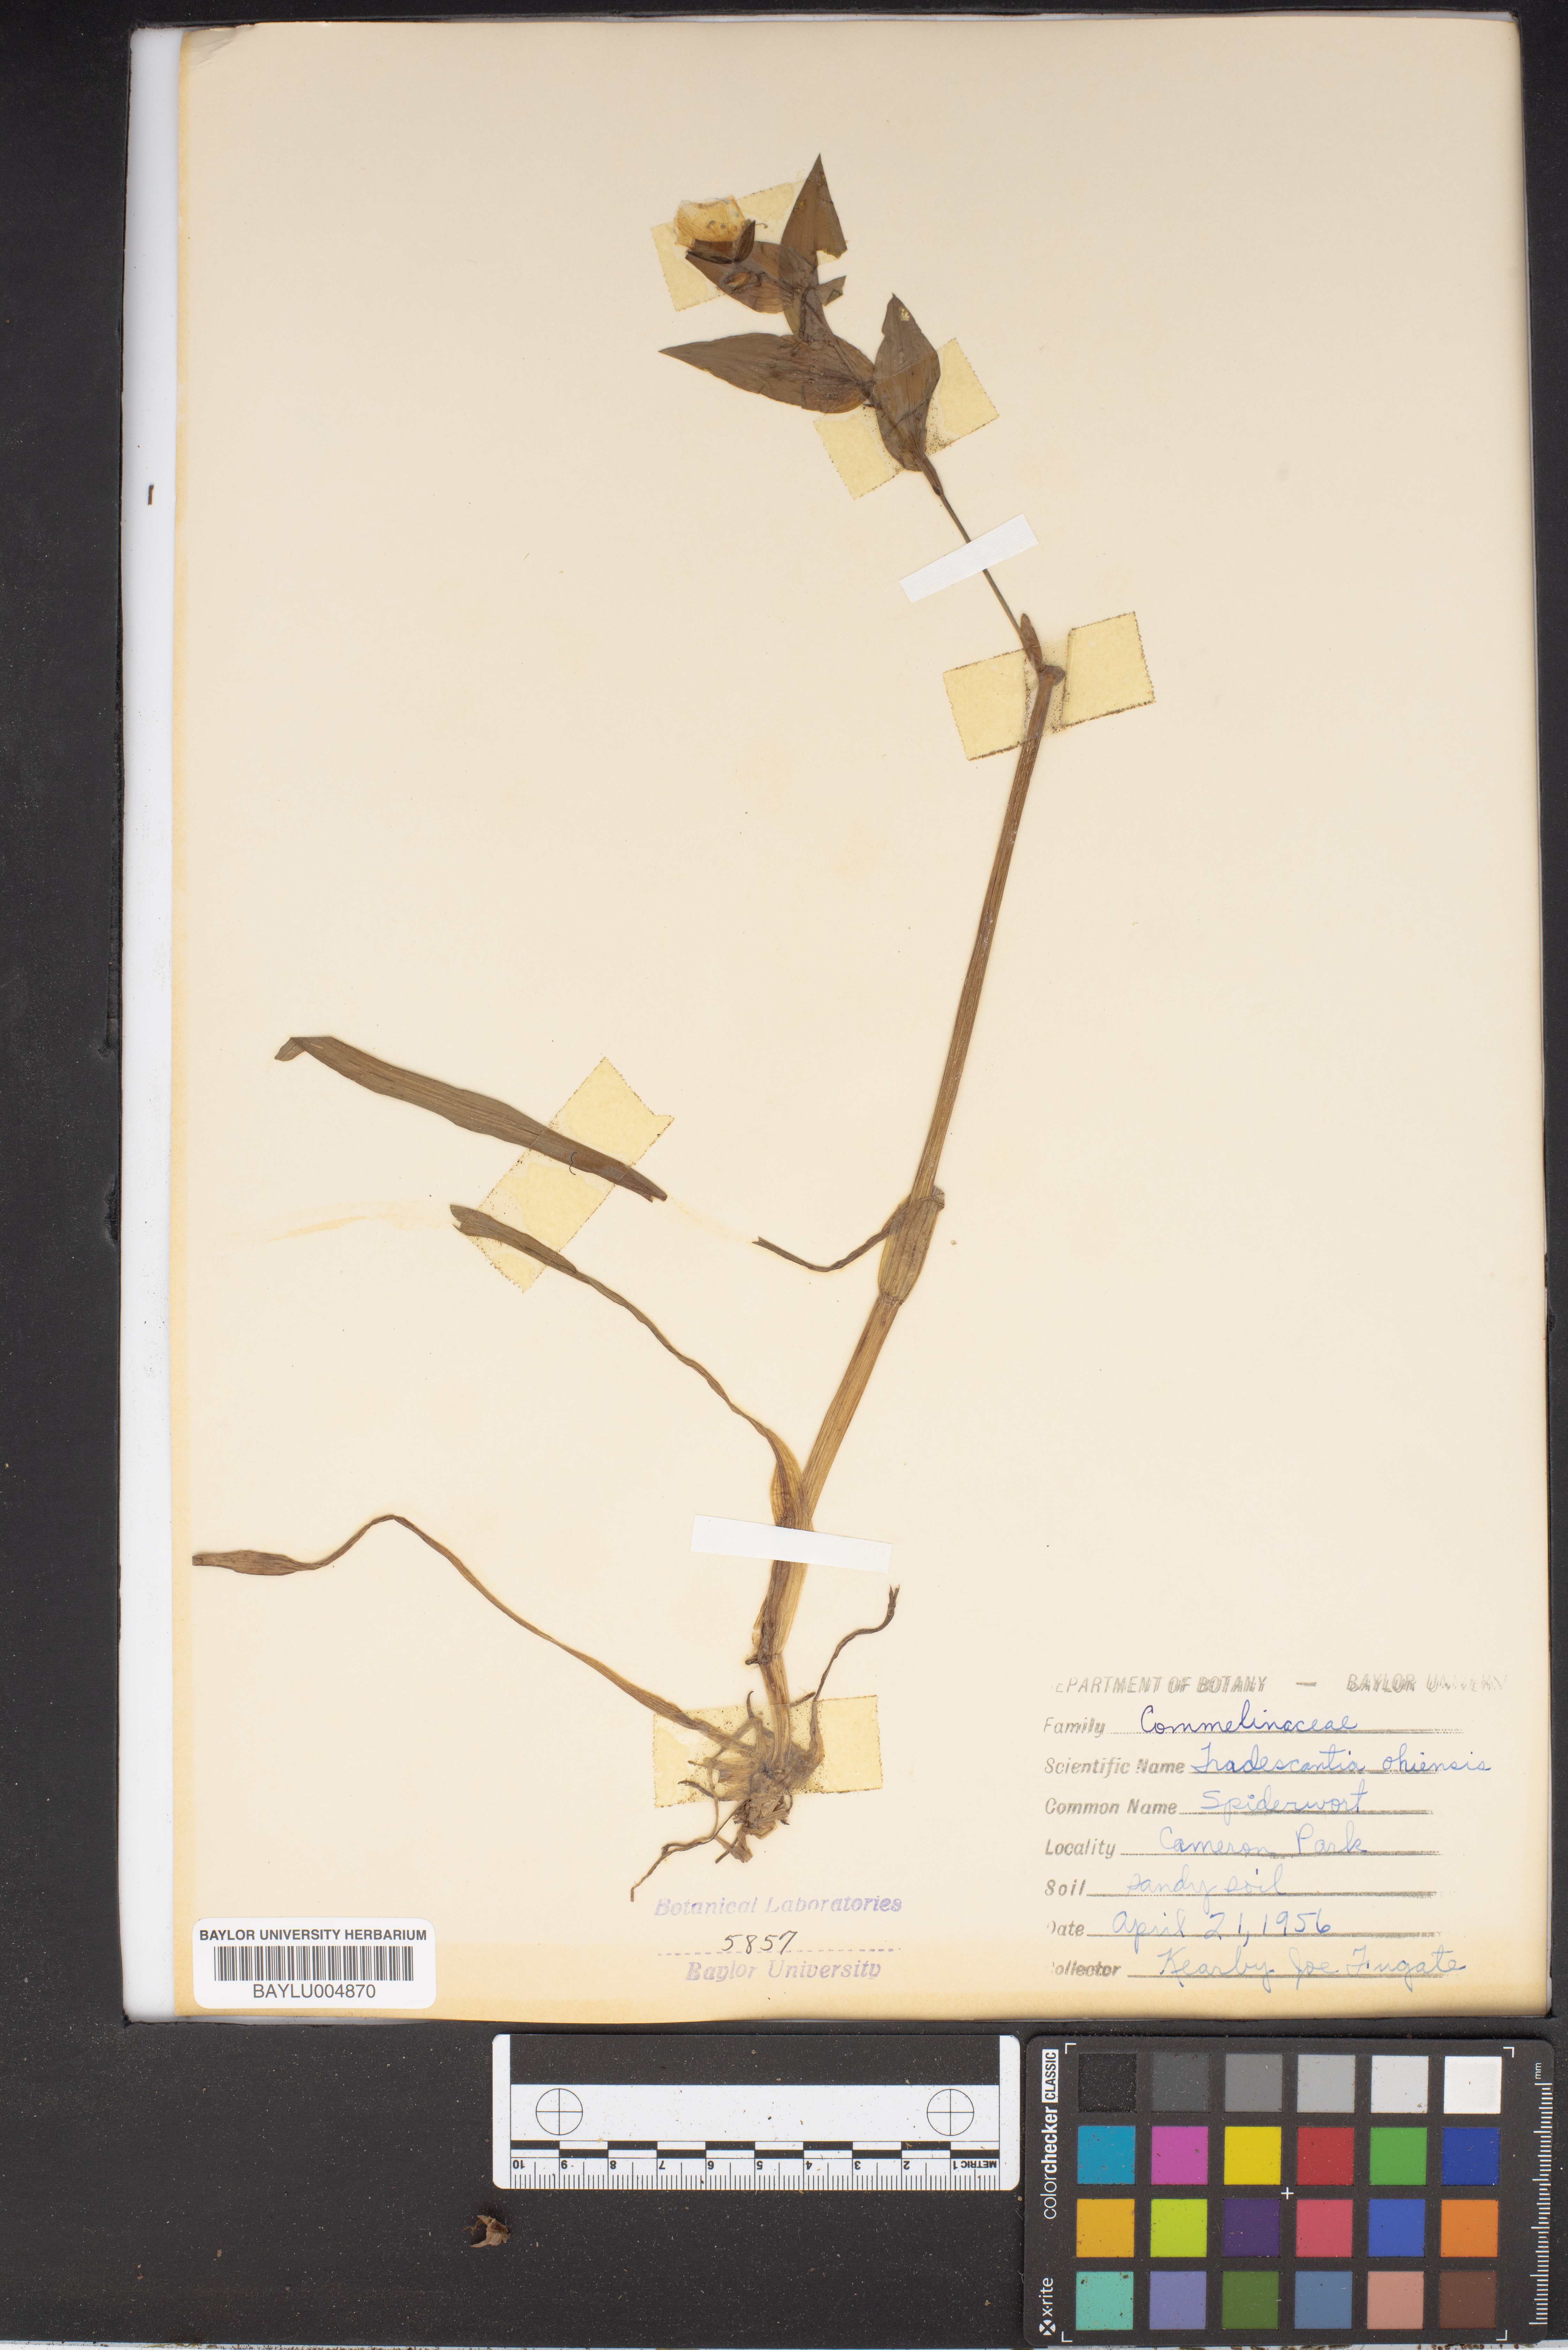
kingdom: Plantae
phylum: Tracheophyta
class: Liliopsida
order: Commelinales
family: Commelinaceae
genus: Tradescantia
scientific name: Tradescantia ohiensis
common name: Ohio spiderwort
